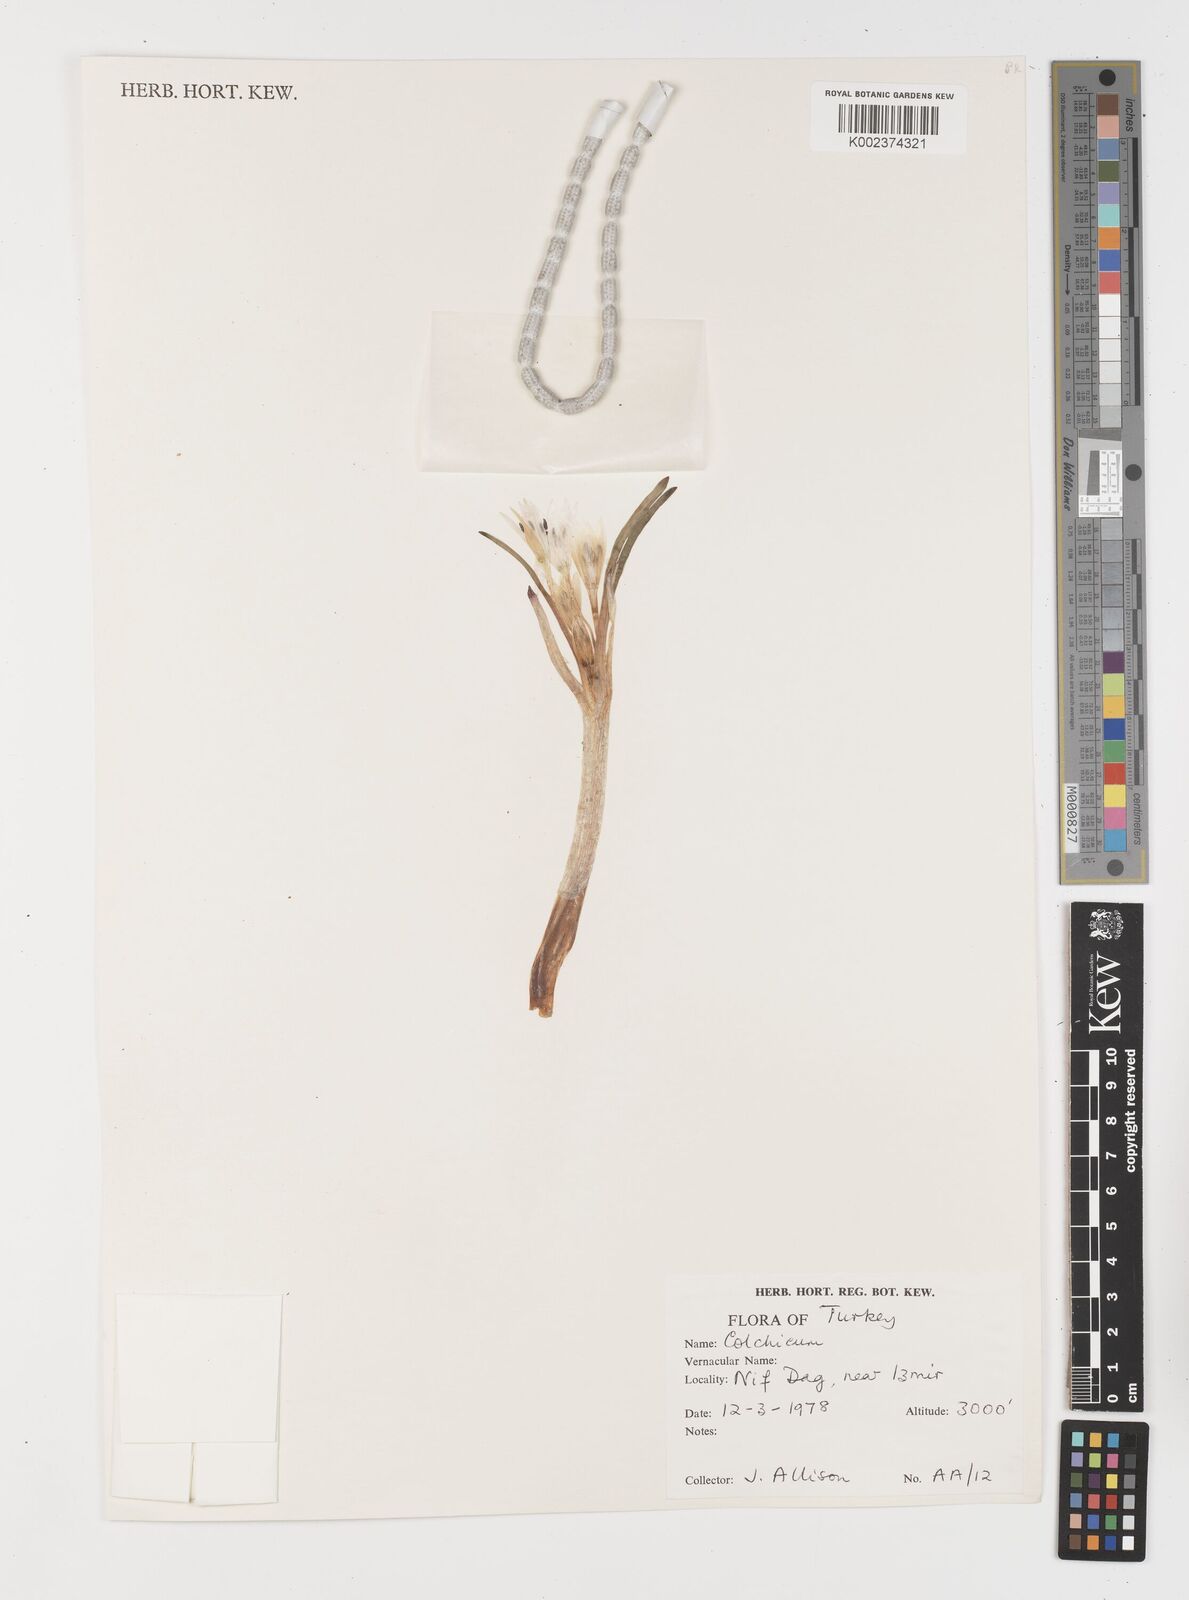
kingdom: Plantae
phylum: Tracheophyta
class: Liliopsida
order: Liliales
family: Colchicaceae
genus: Colchicum
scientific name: Colchicum
